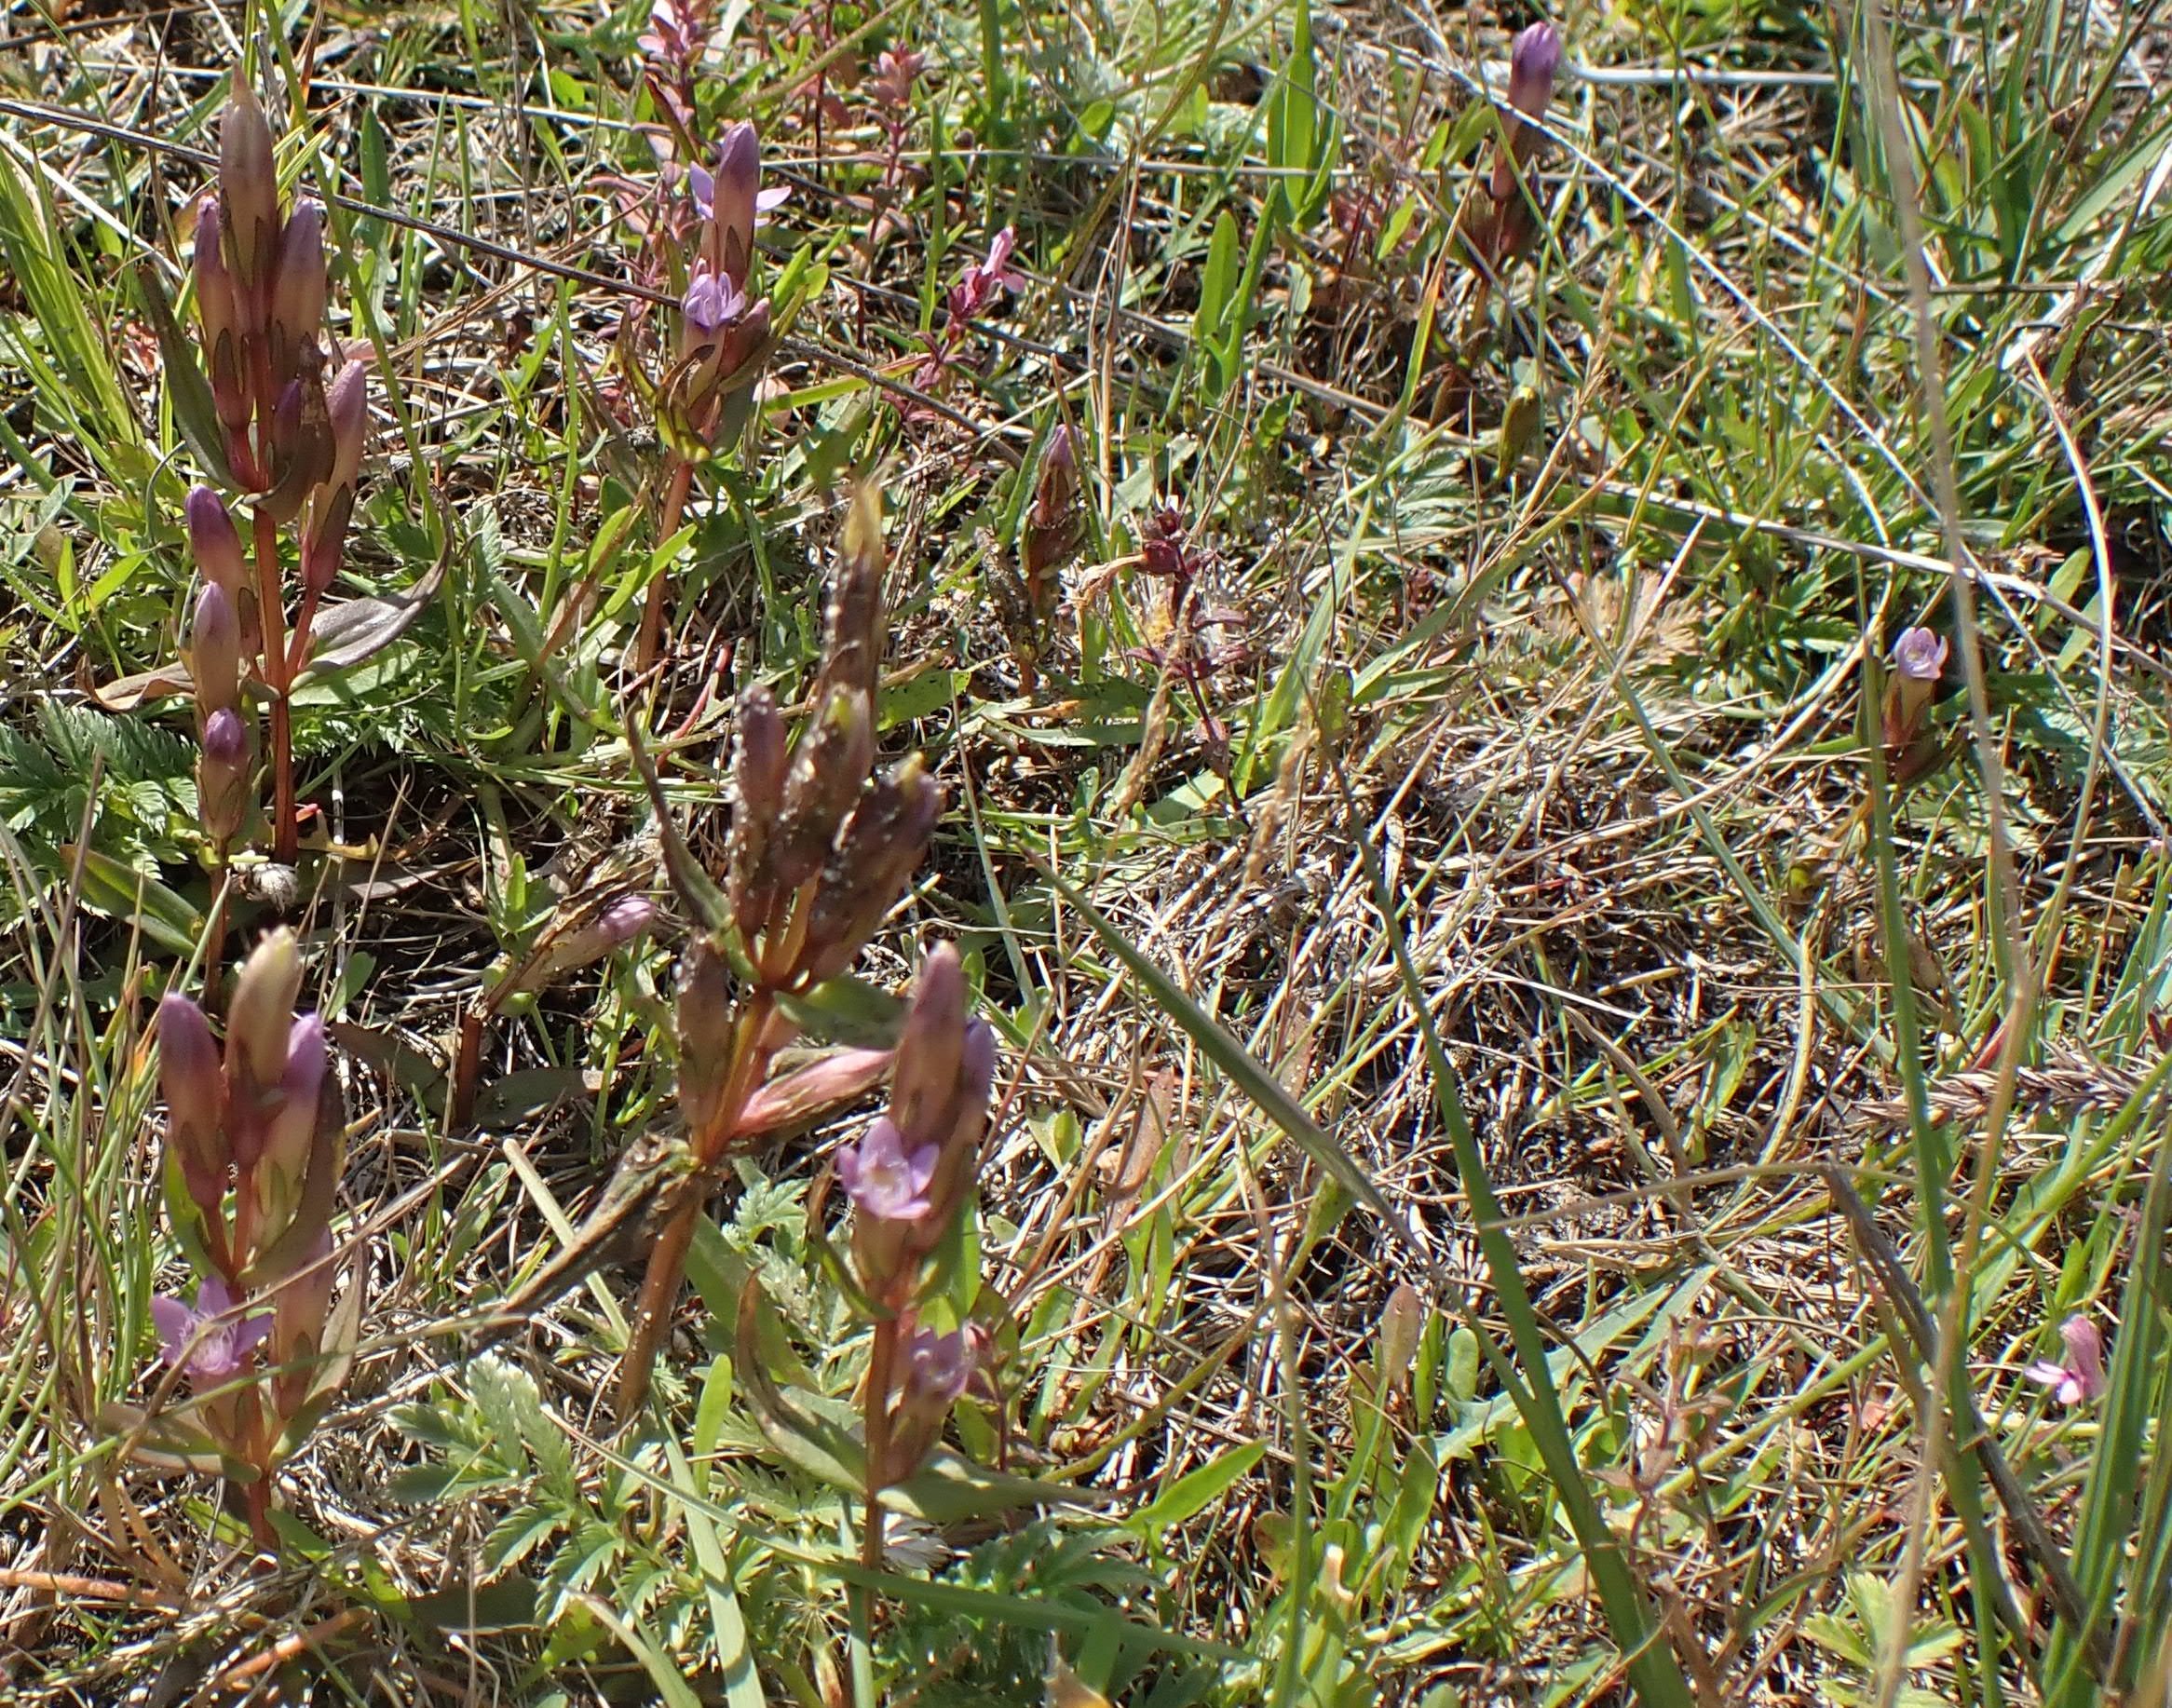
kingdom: Plantae
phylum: Tracheophyta
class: Magnoliopsida
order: Gentianales
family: Gentianaceae
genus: Gentianella
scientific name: Gentianella uliginosa
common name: Eng-ensian
